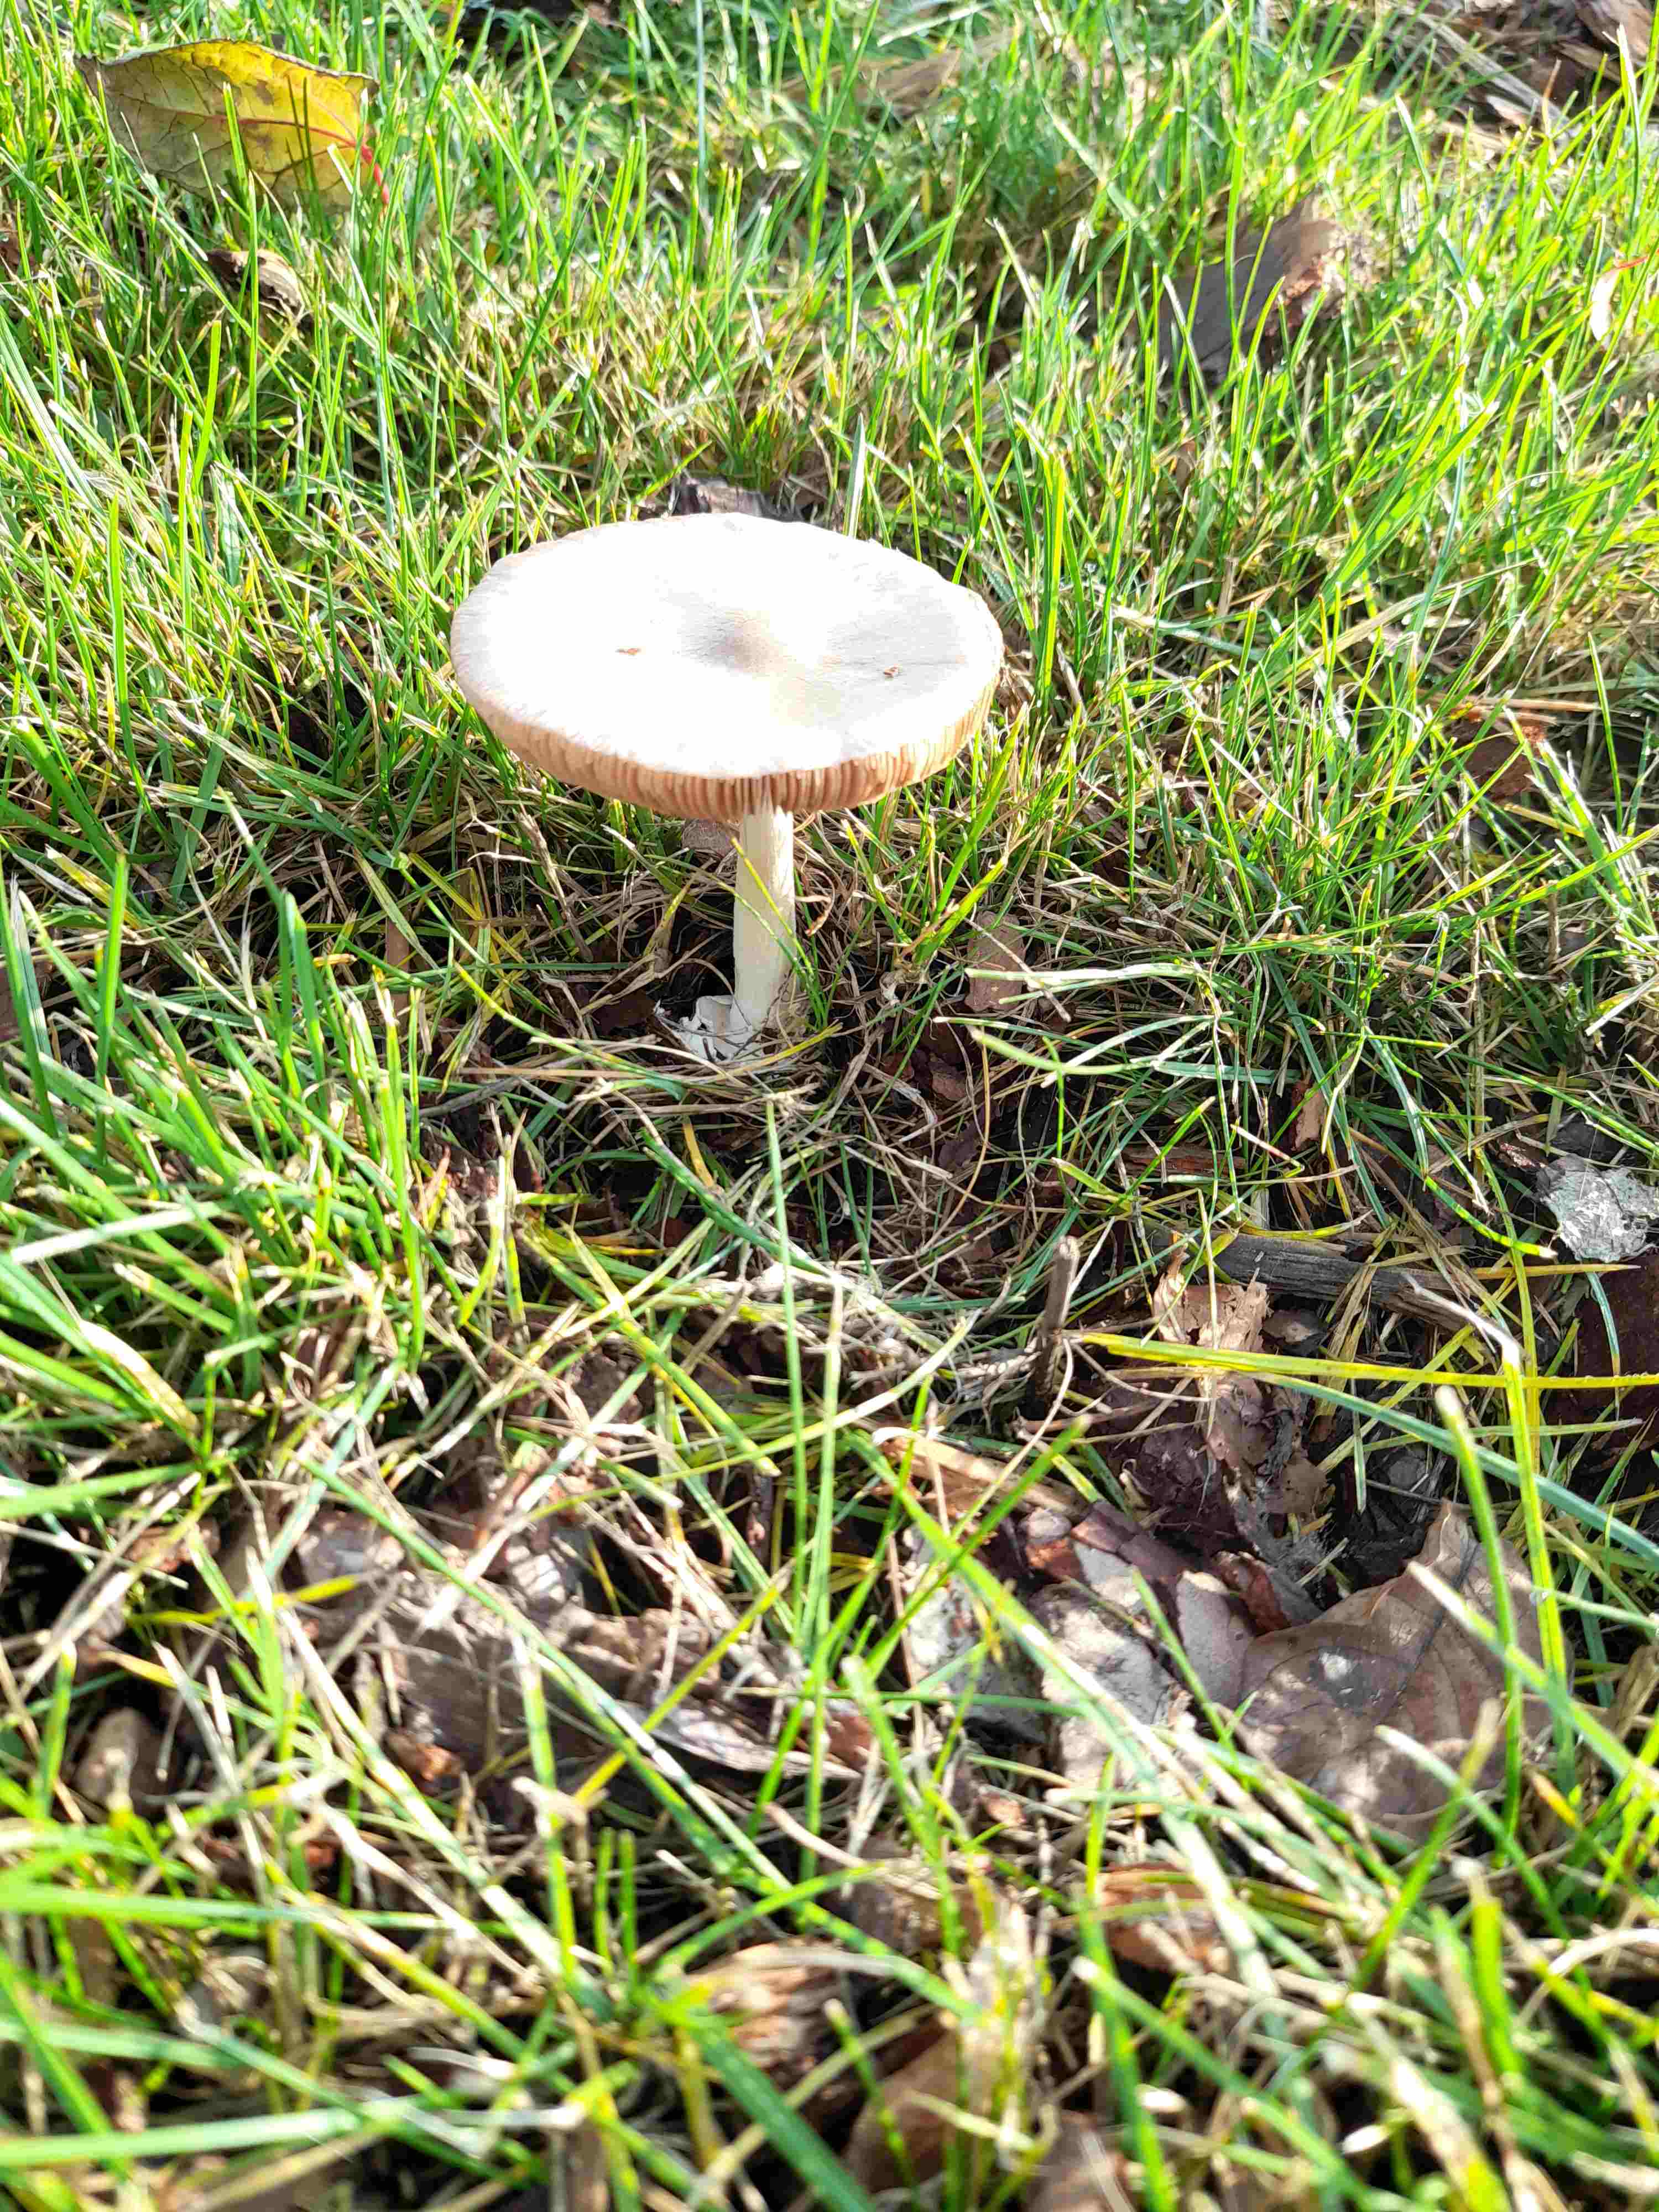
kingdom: Fungi
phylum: Basidiomycota
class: Agaricomycetes
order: Agaricales
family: Pluteaceae
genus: Volvopluteus
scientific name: Volvopluteus gloiocephalus
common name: høj posesvamp
